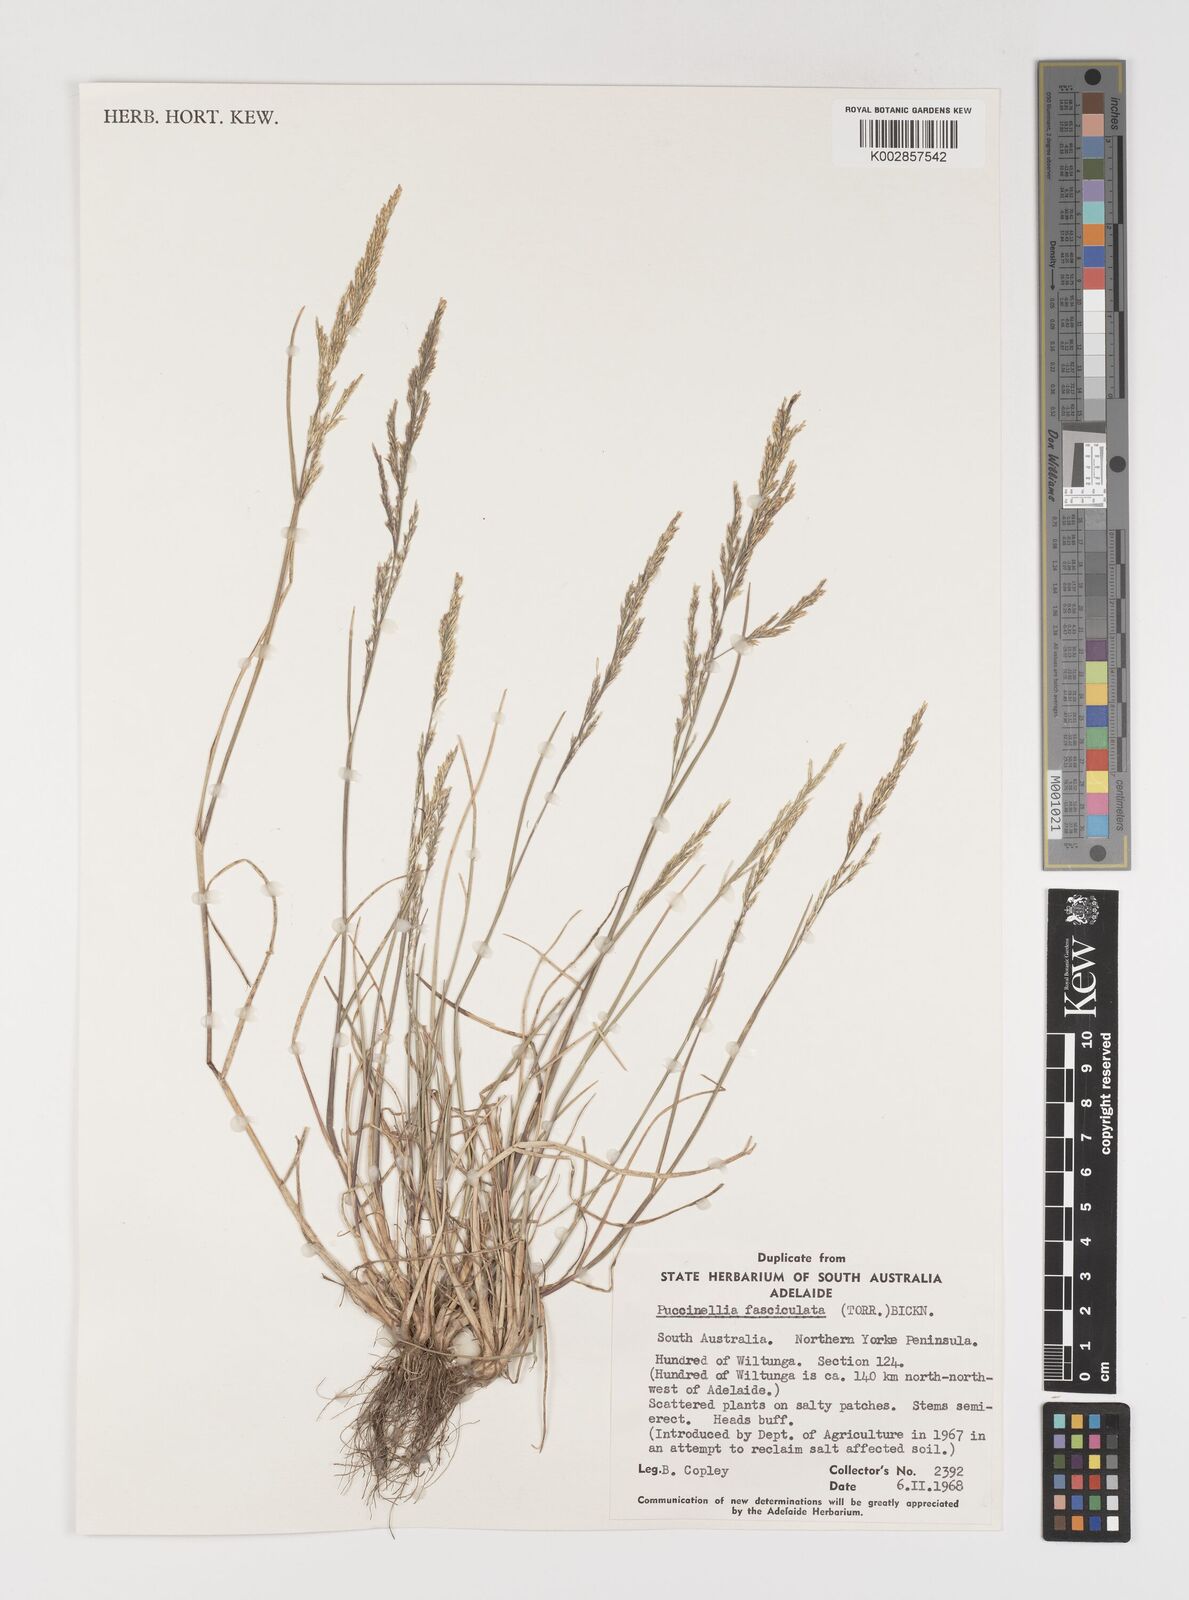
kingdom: Plantae
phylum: Tracheophyta
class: Liliopsida
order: Poales
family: Poaceae
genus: Puccinellia
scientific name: Puccinellia fasciculata
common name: Borrer's saltmarsh-grass
